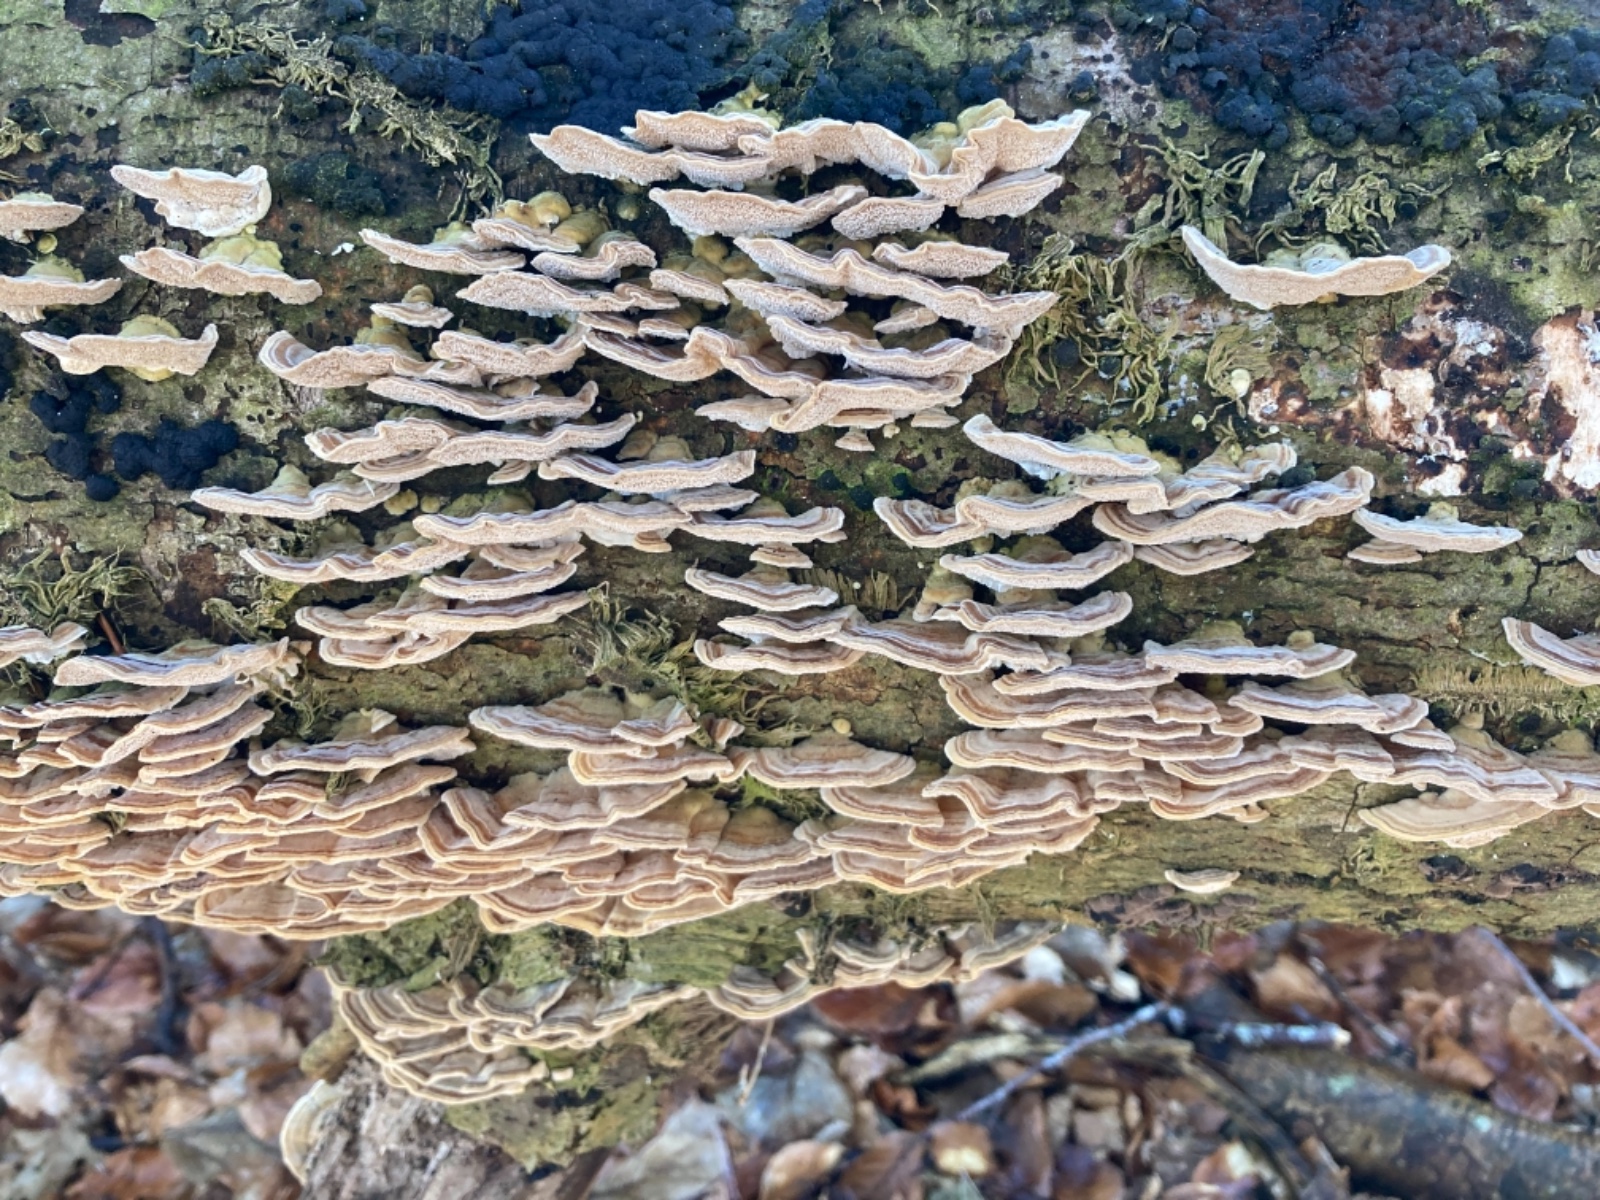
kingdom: Fungi
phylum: Basidiomycota
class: Agaricomycetes
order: Polyporales
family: Polyporaceae
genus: Trametes
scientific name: Trametes versicolor
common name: broget læderporesvamp
